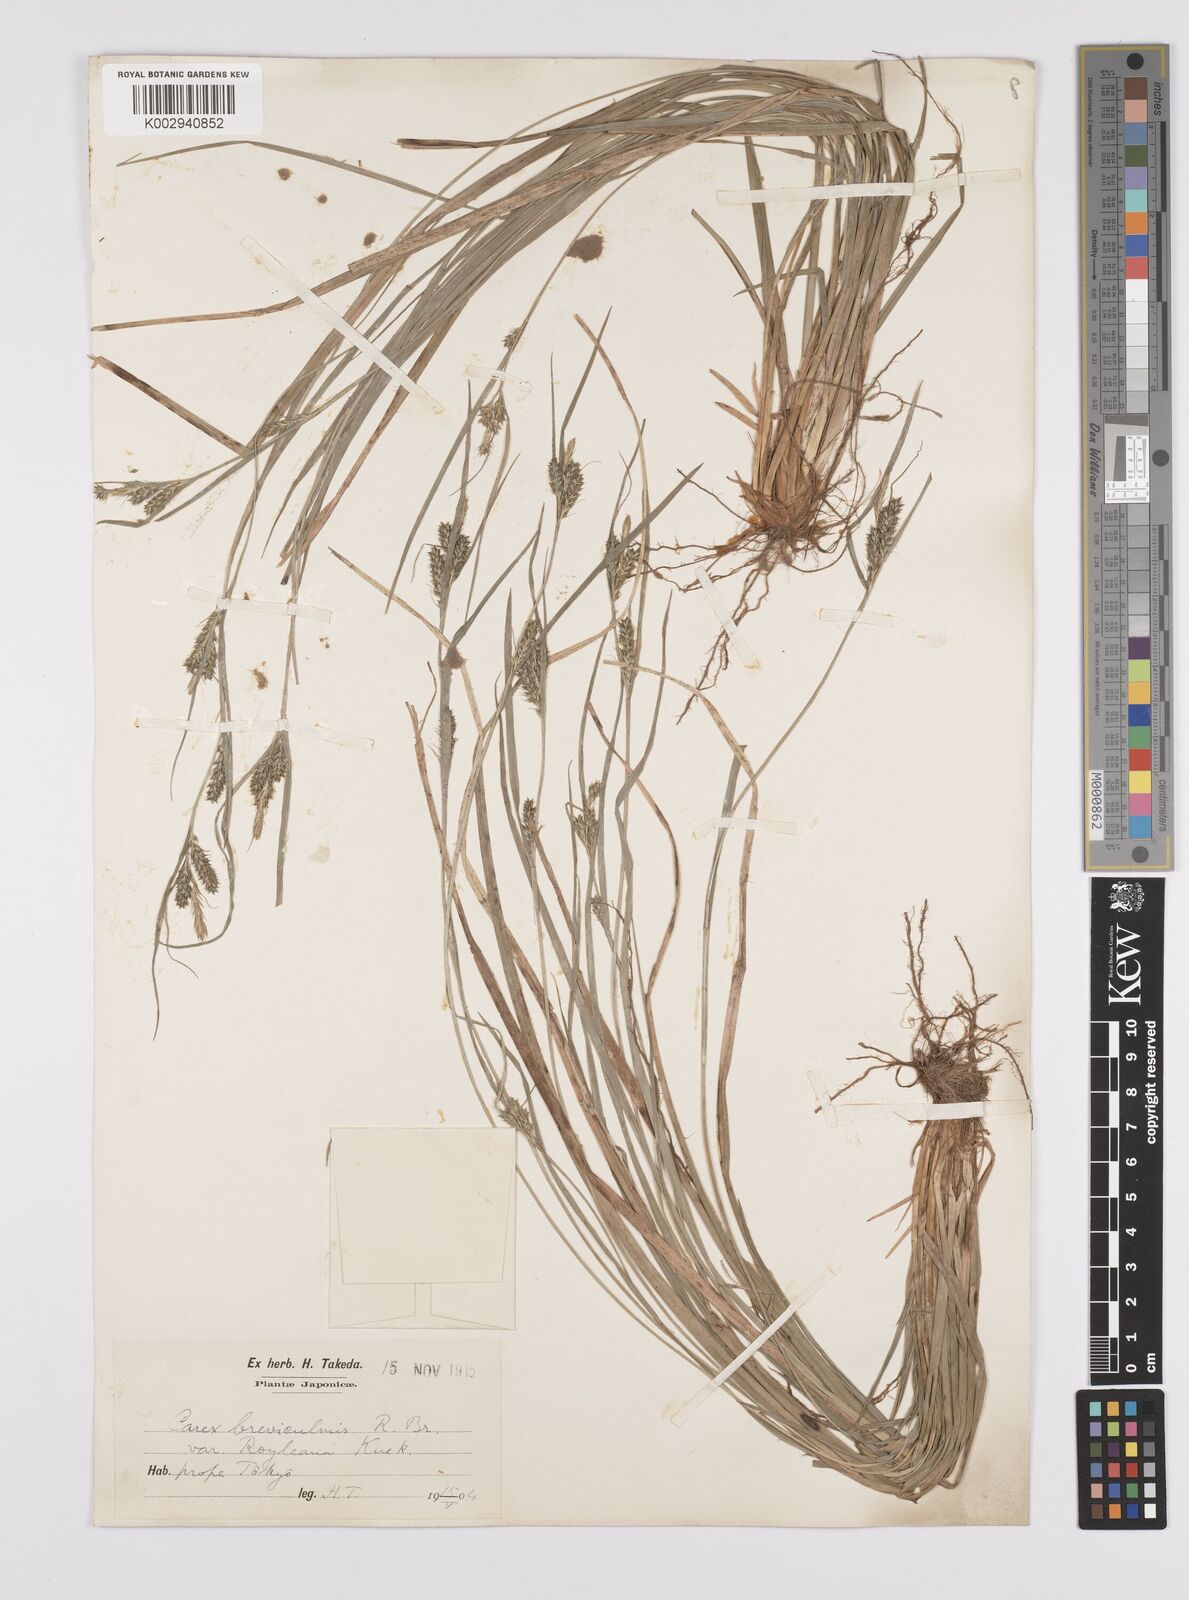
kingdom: Plantae
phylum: Tracheophyta
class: Liliopsida
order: Poales
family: Cyperaceae
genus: Carex
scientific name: Carex breviculmis
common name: Asian shortstem sedge
